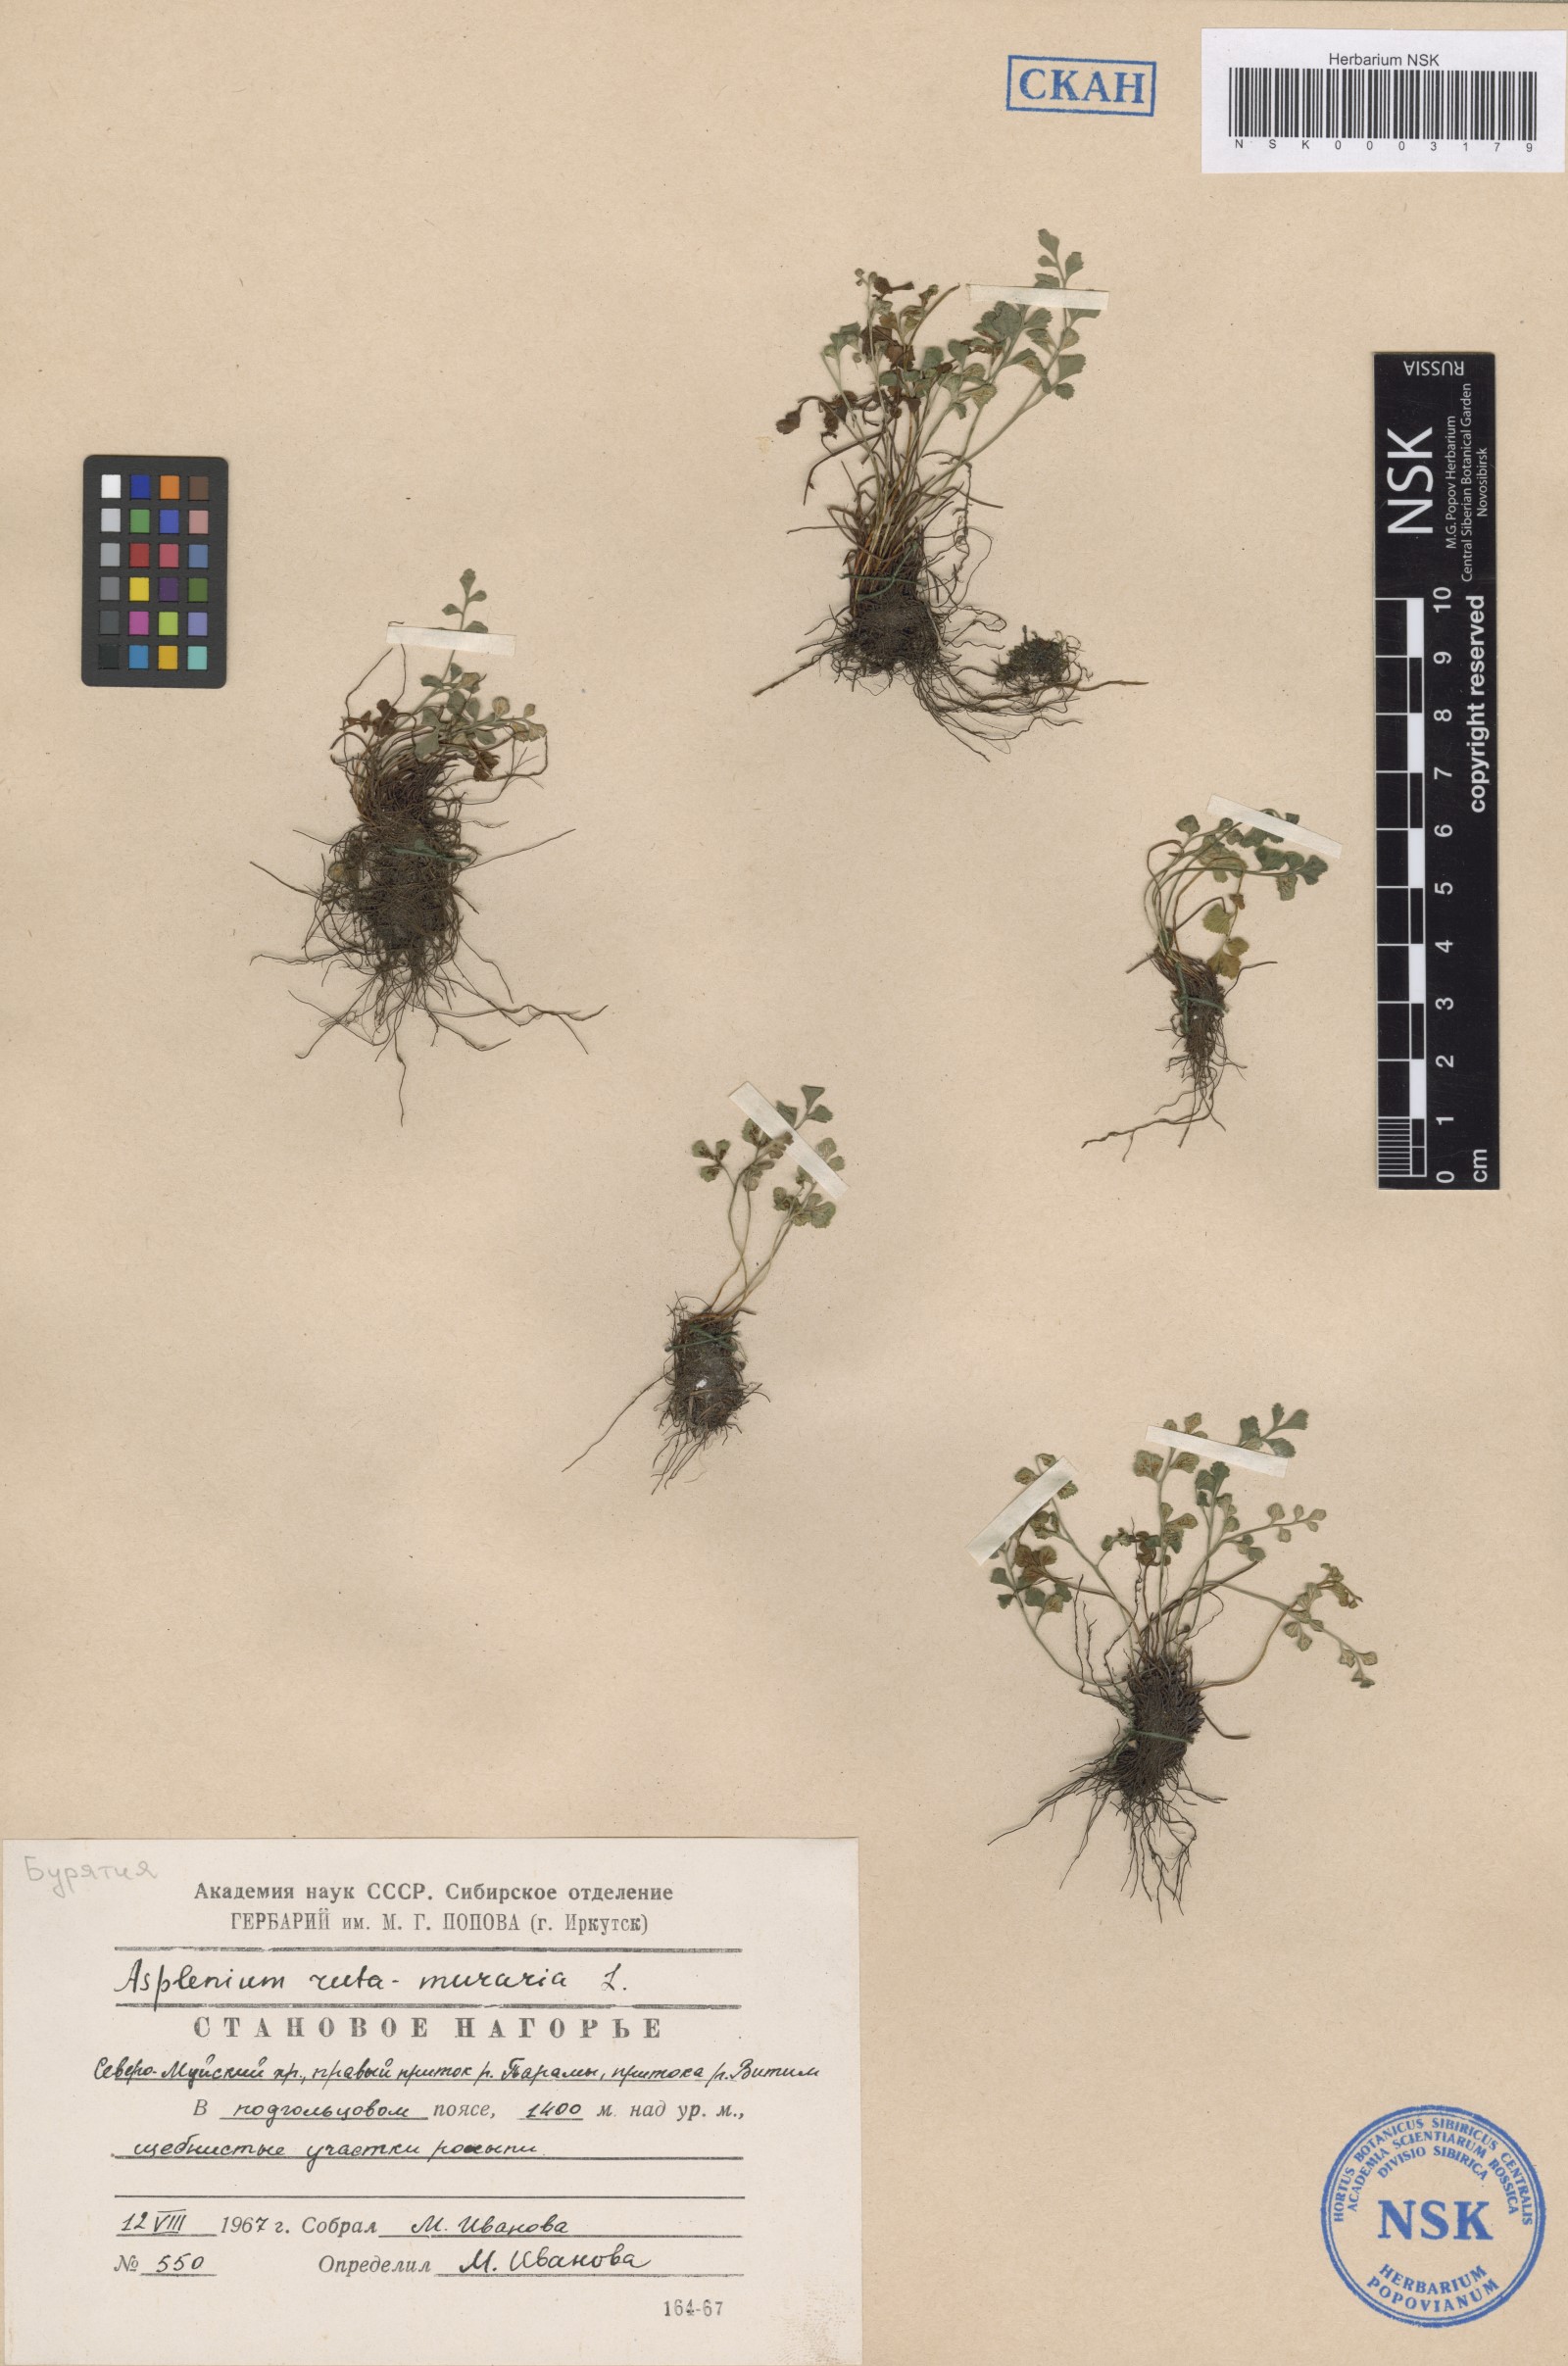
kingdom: Plantae
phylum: Tracheophyta
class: Polypodiopsida
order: Polypodiales
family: Aspleniaceae
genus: Asplenium
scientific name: Asplenium ruta-muraria
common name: Wall-rue
